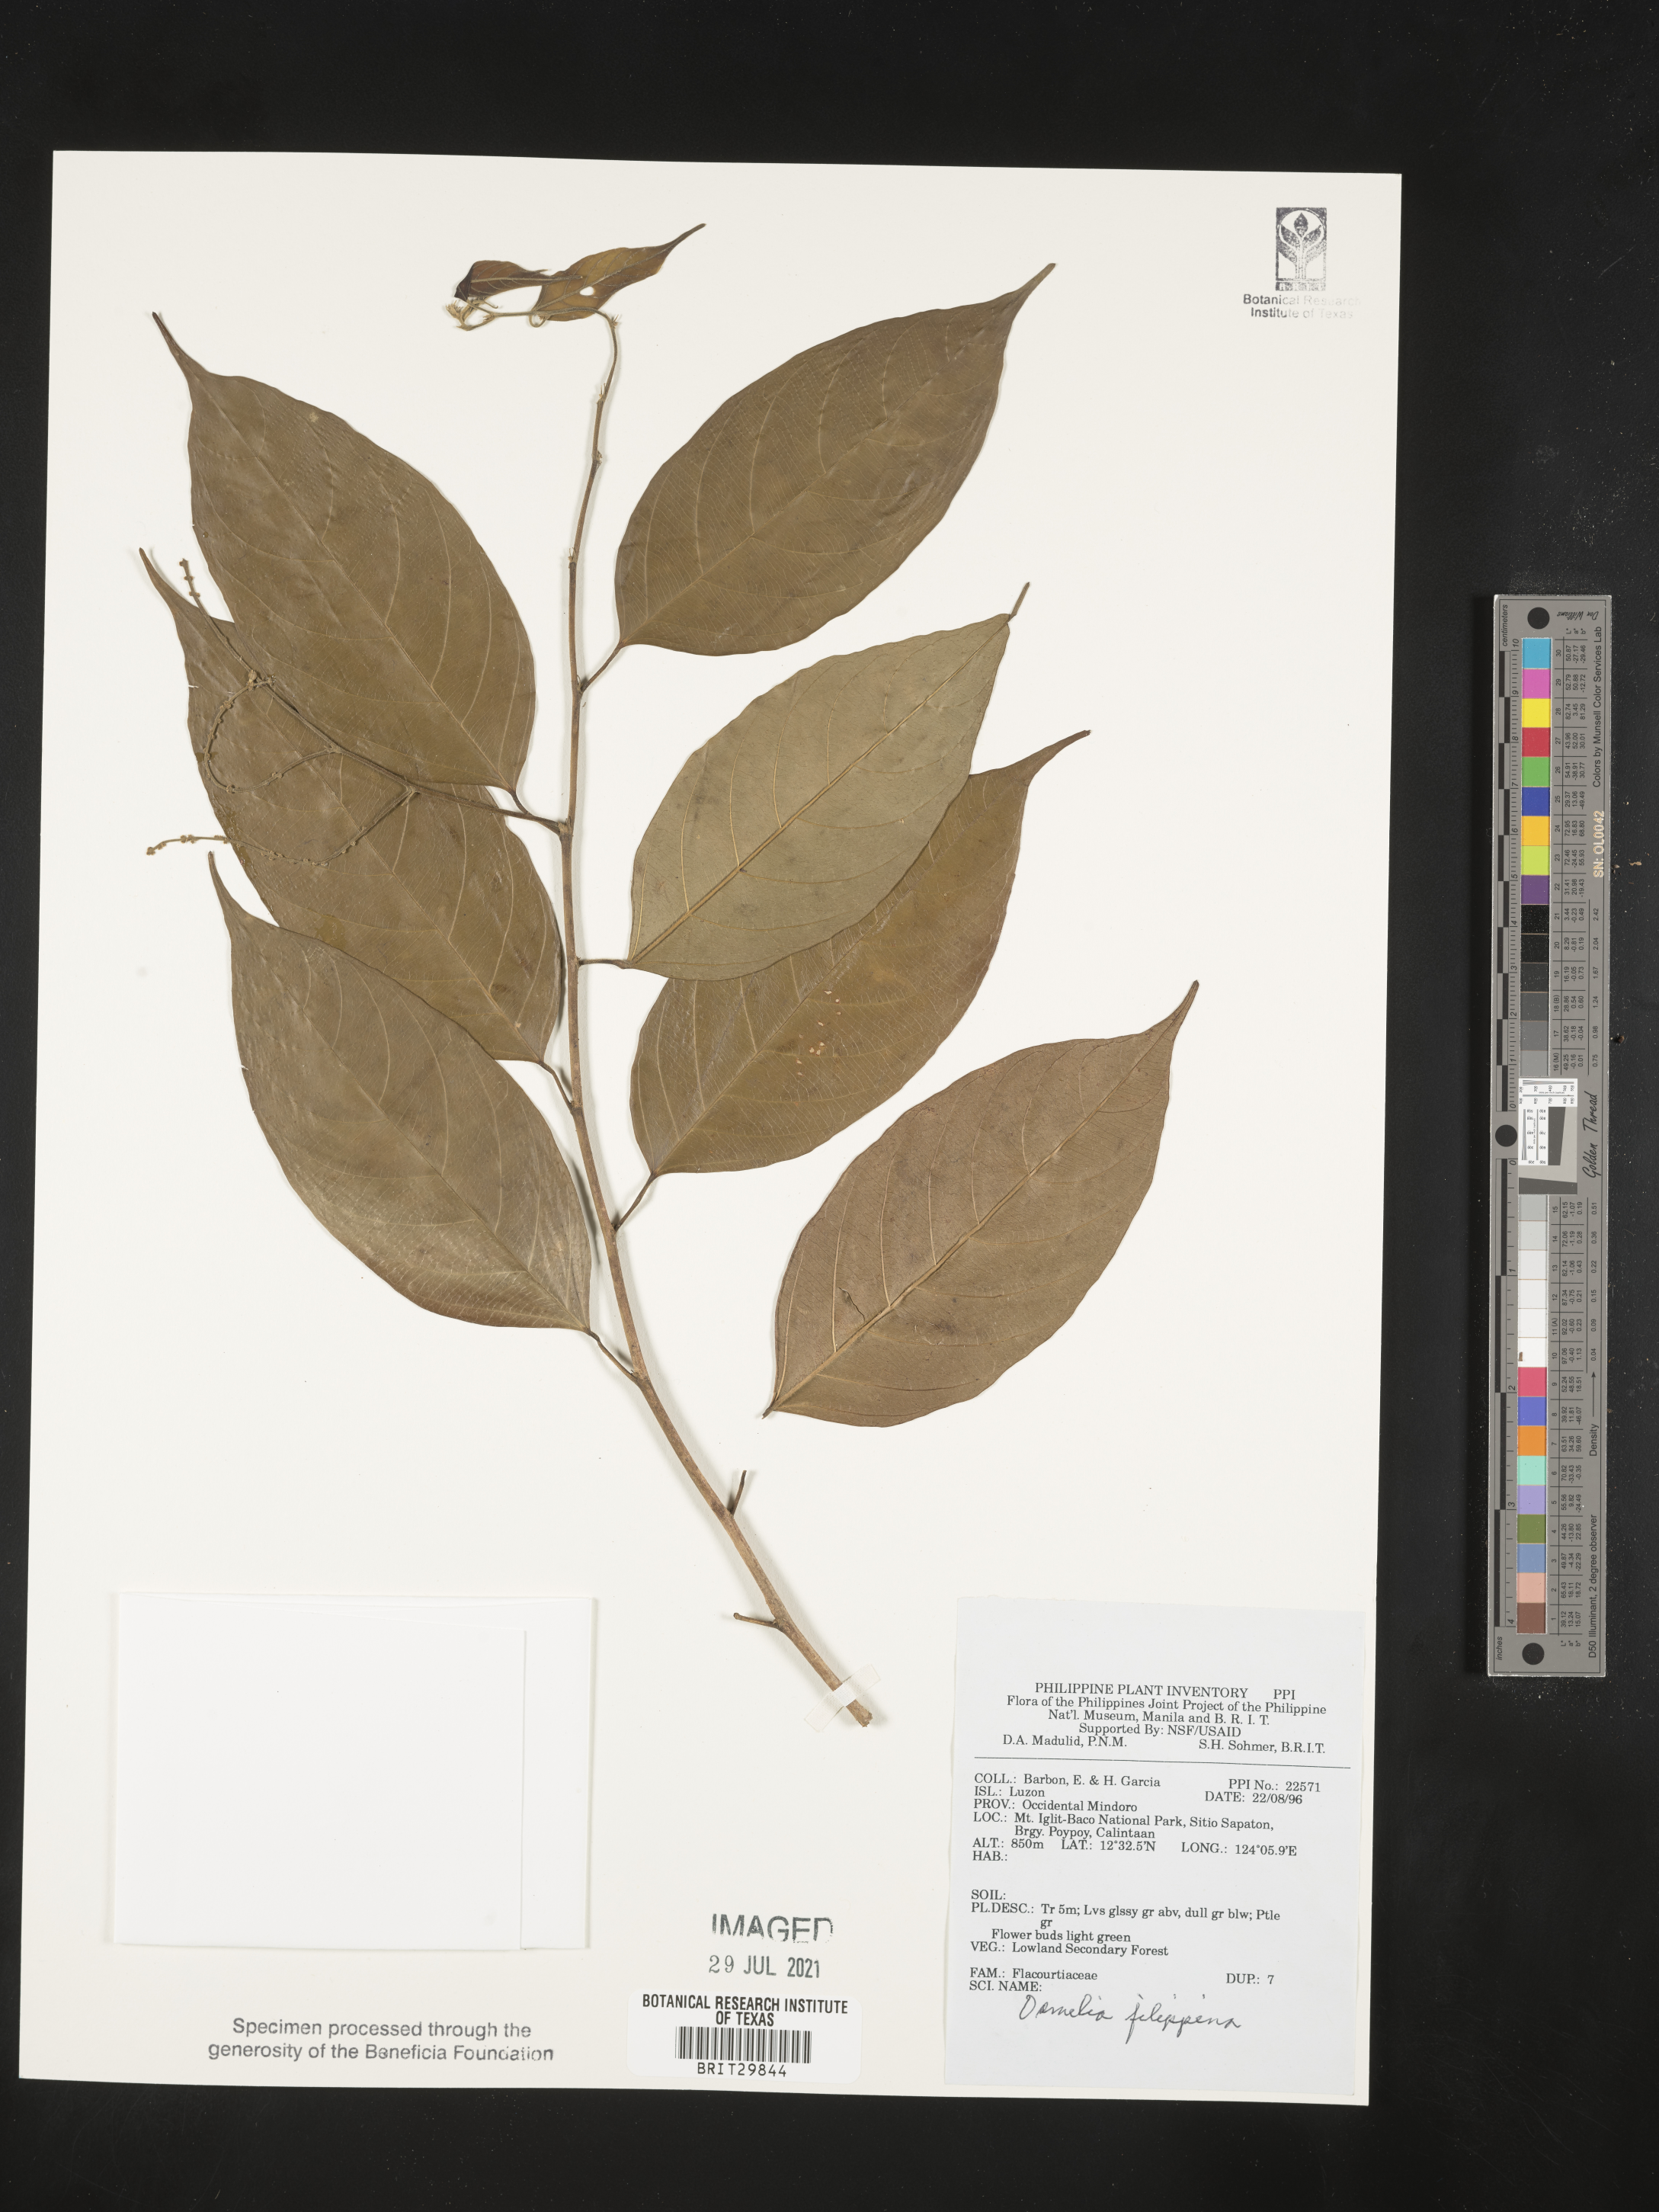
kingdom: Plantae
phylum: Tracheophyta
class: Magnoliopsida
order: Malpighiales
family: Salicaceae
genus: Osmelia
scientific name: Osmelia
